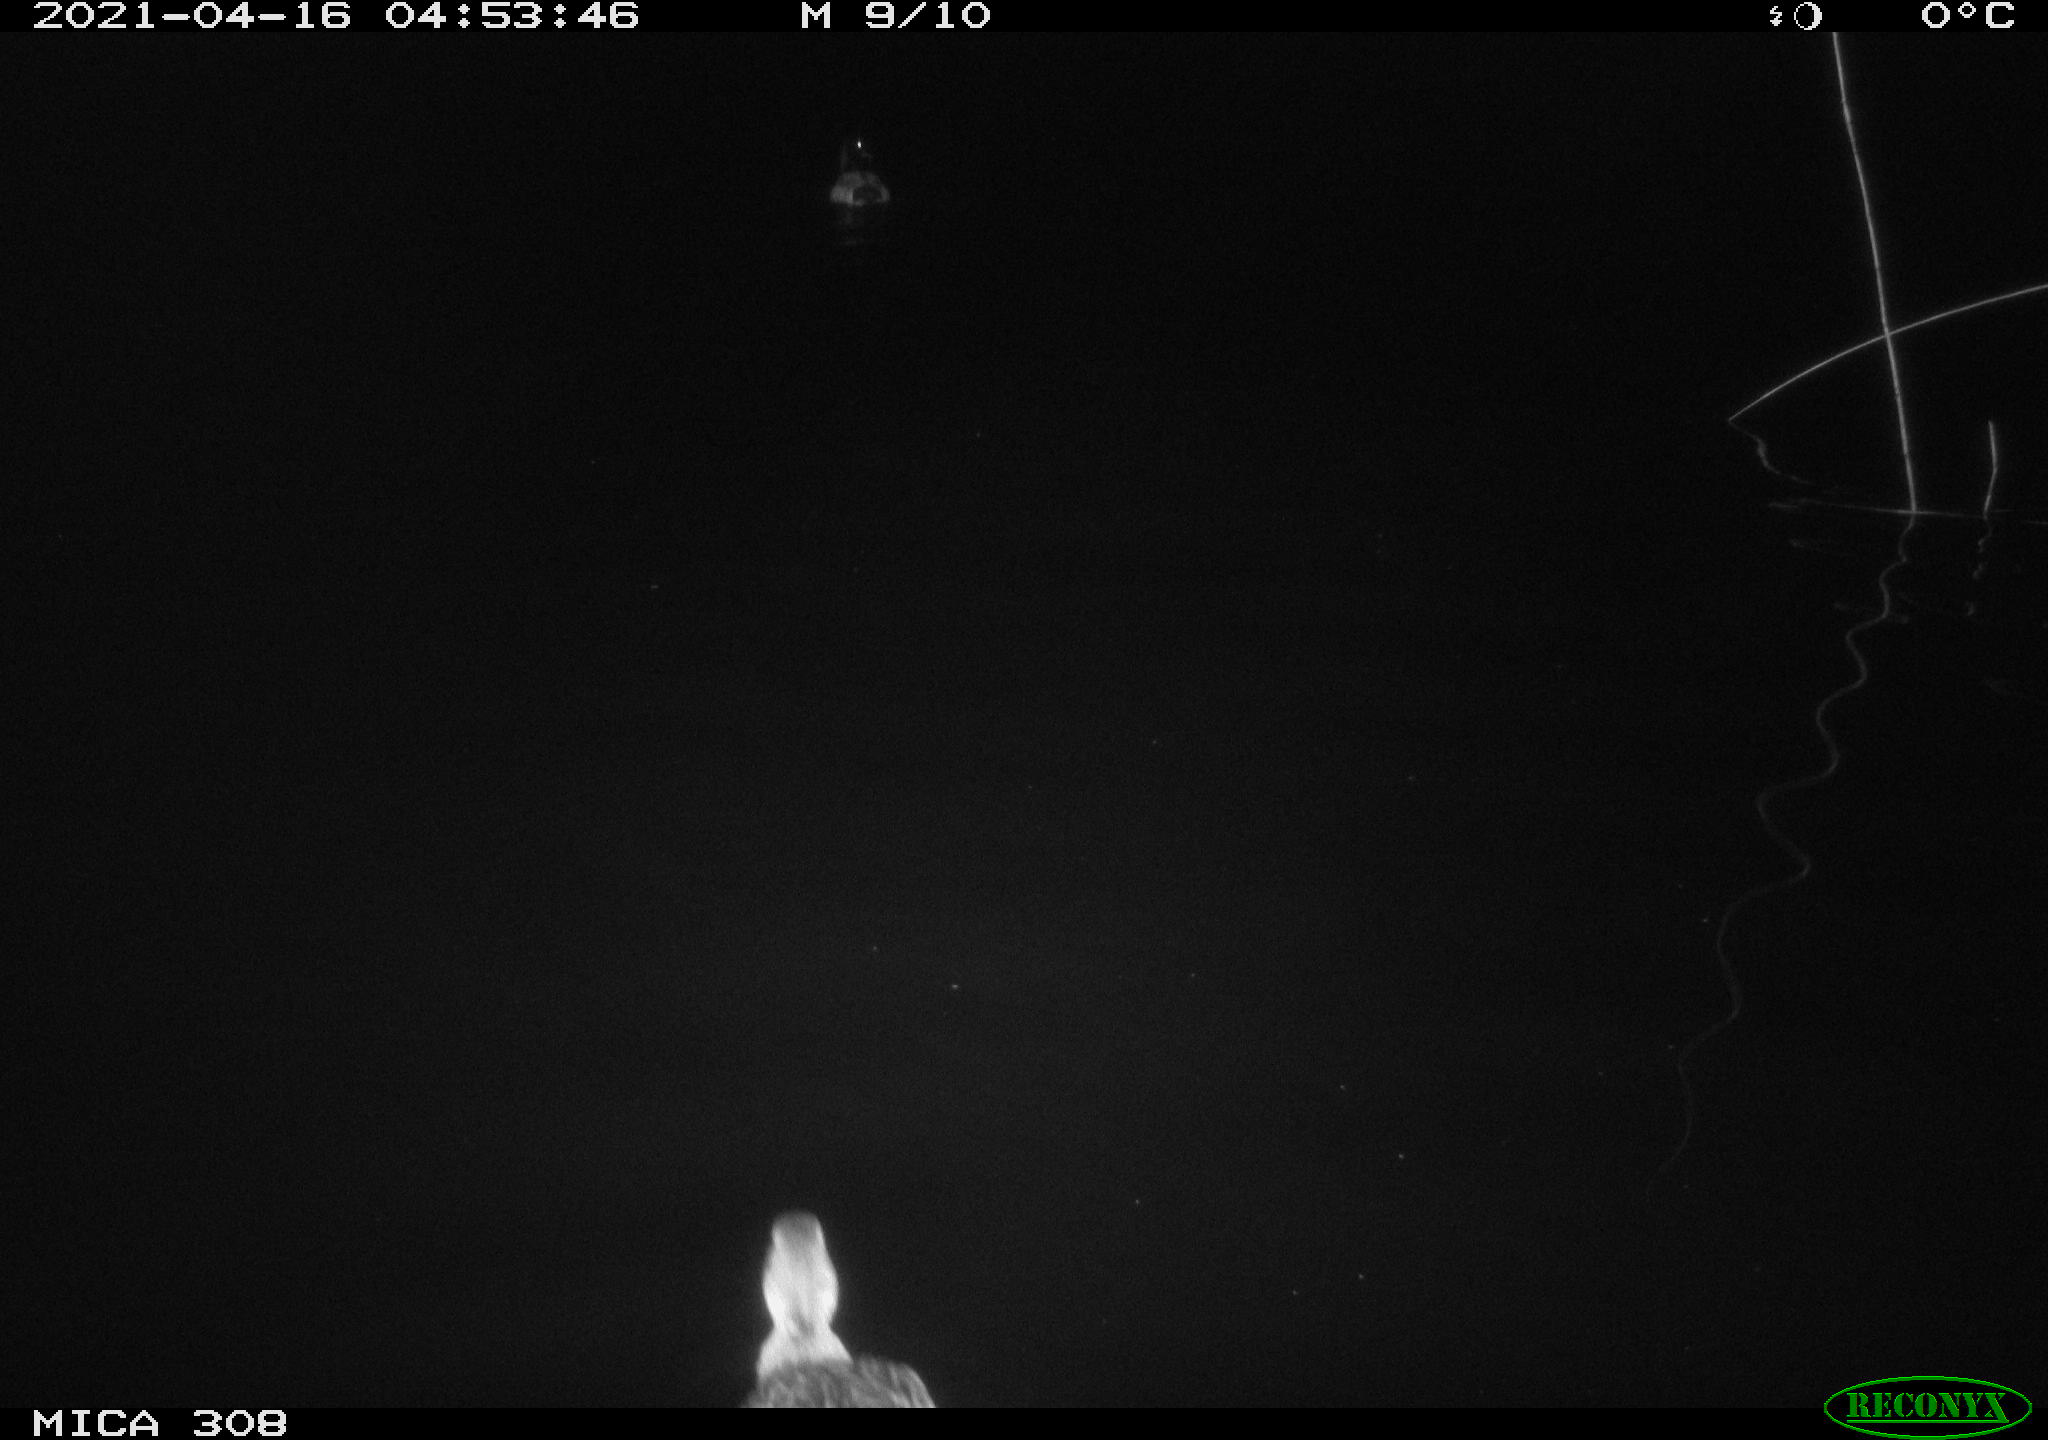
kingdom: Animalia
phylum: Chordata
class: Aves
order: Anseriformes
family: Anatidae
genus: Anas
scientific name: Anas platyrhynchos
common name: Mallard
